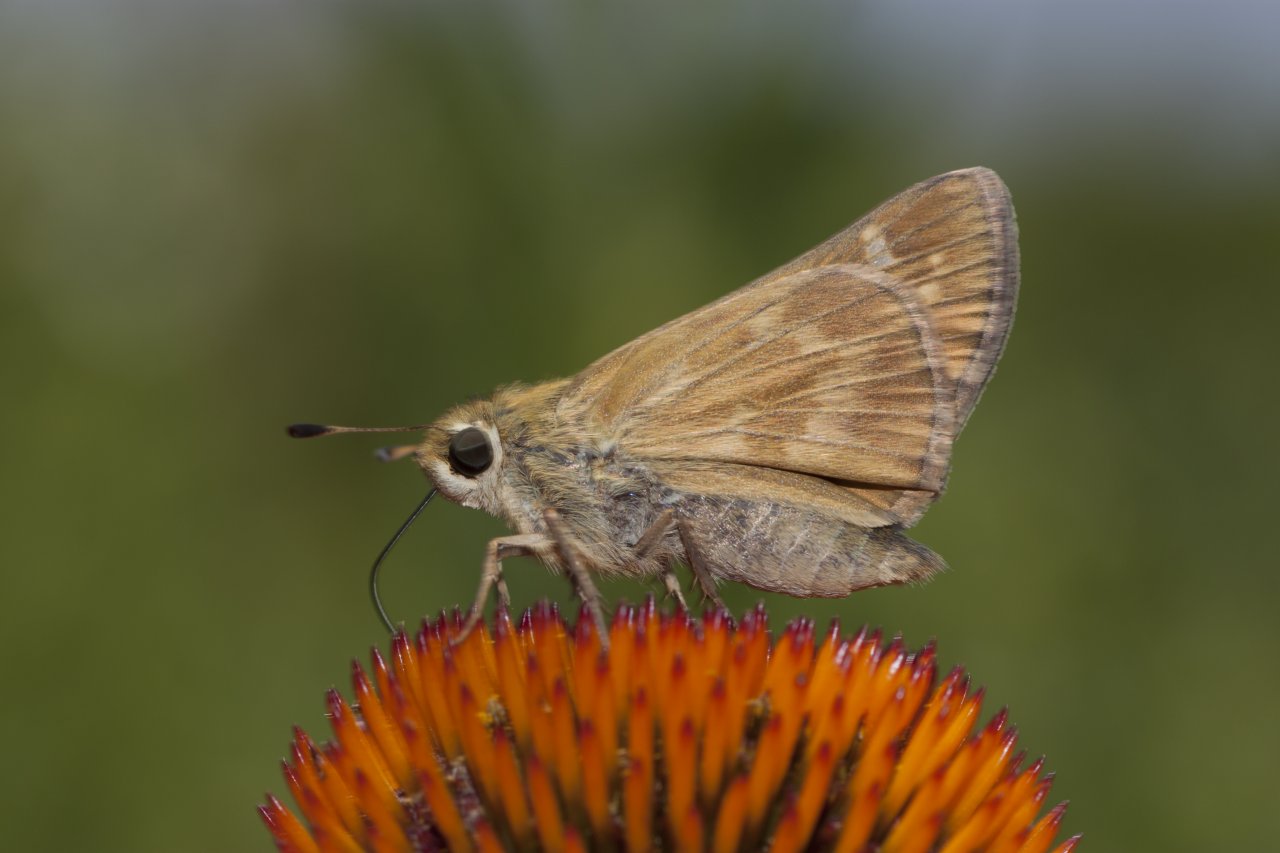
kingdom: Animalia
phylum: Arthropoda
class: Insecta
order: Lepidoptera
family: Hesperiidae
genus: Atalopedes
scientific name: Atalopedes campestris
